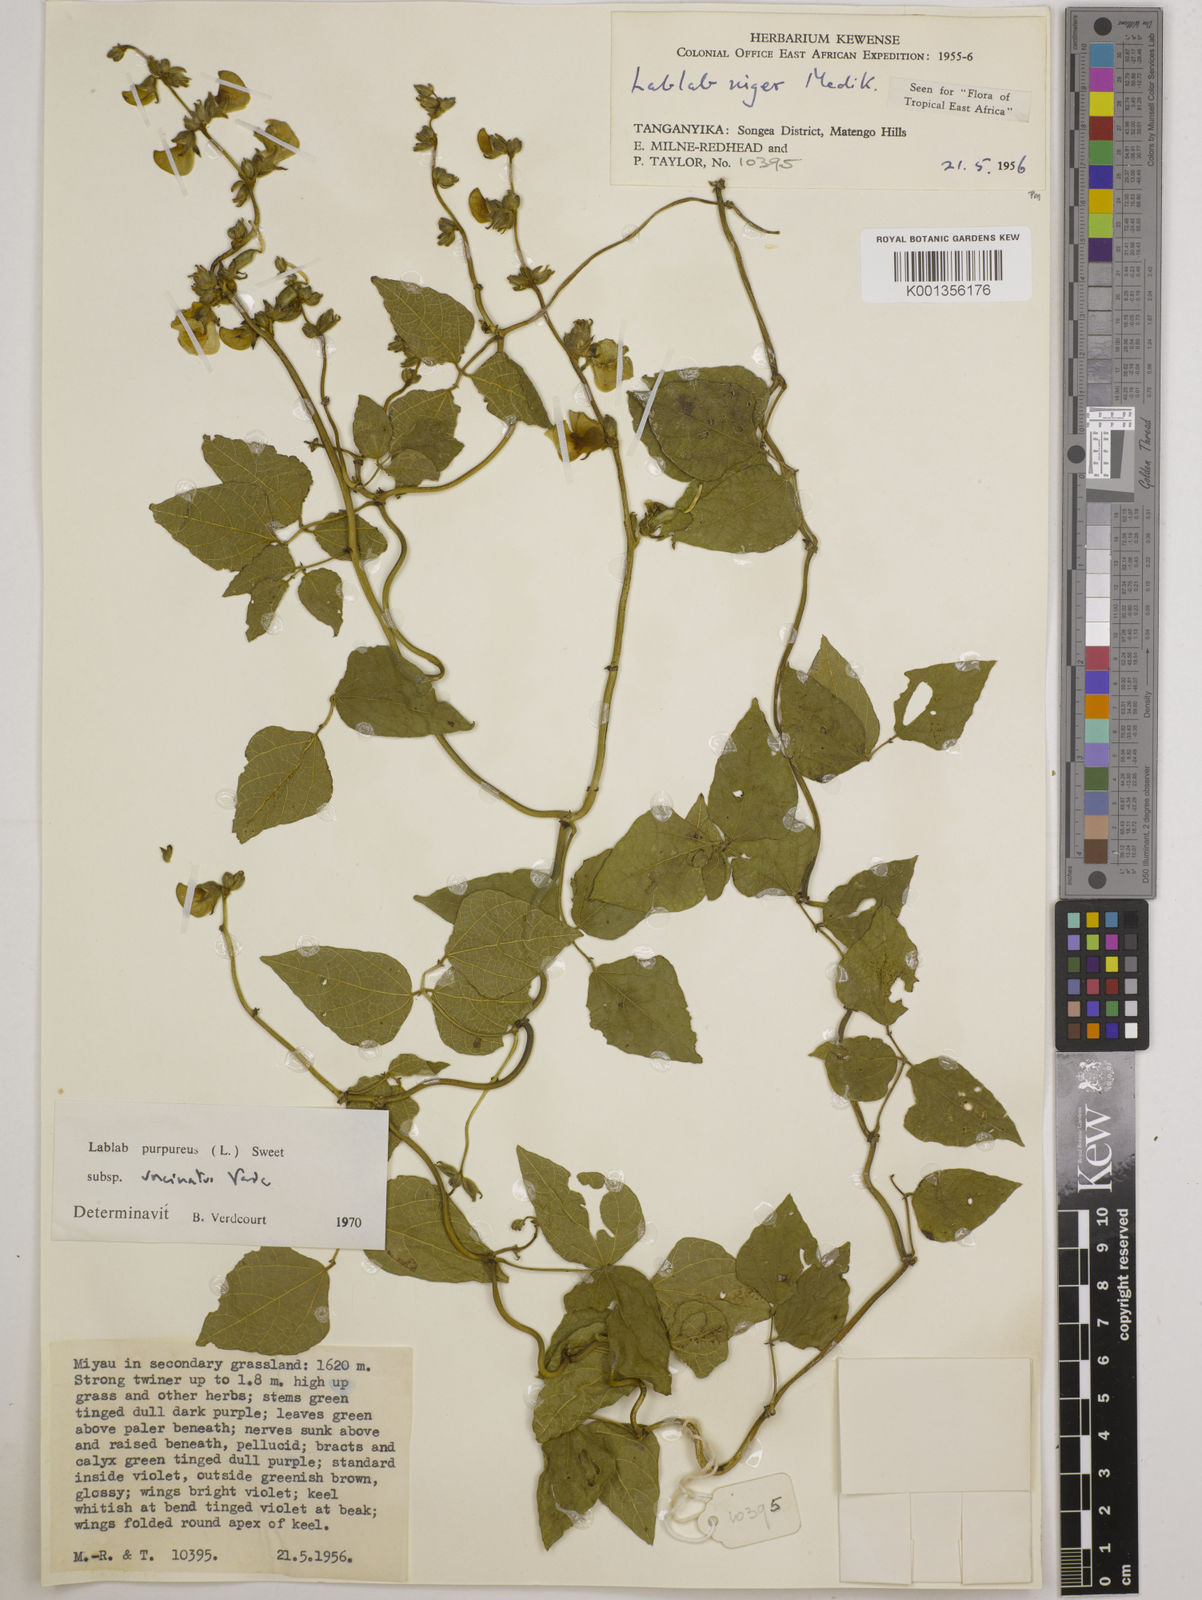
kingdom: Plantae
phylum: Tracheophyta
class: Magnoliopsida
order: Fabales
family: Fabaceae
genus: Lablab
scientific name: Lablab purpureus
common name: Lablab-bean
